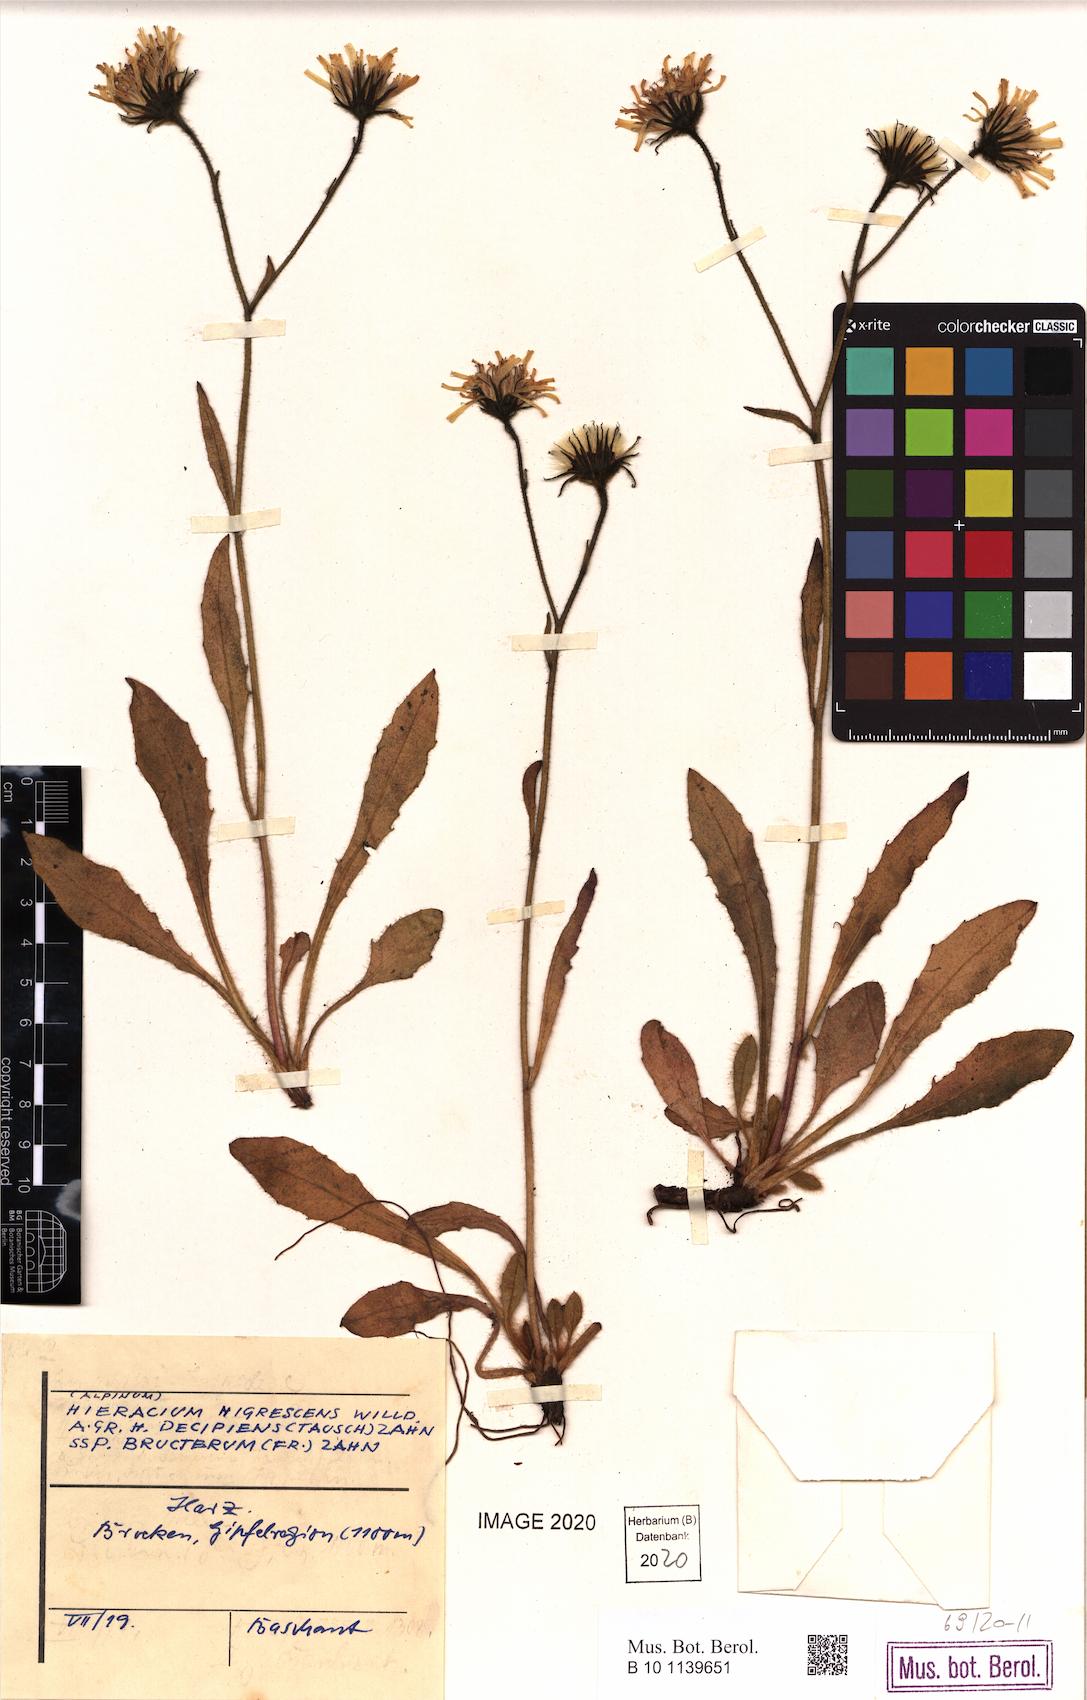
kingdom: Plantae
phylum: Tracheophyta
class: Magnoliopsida
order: Asterales
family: Asteraceae
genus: Hieracium
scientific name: Hieracium nigrescens
